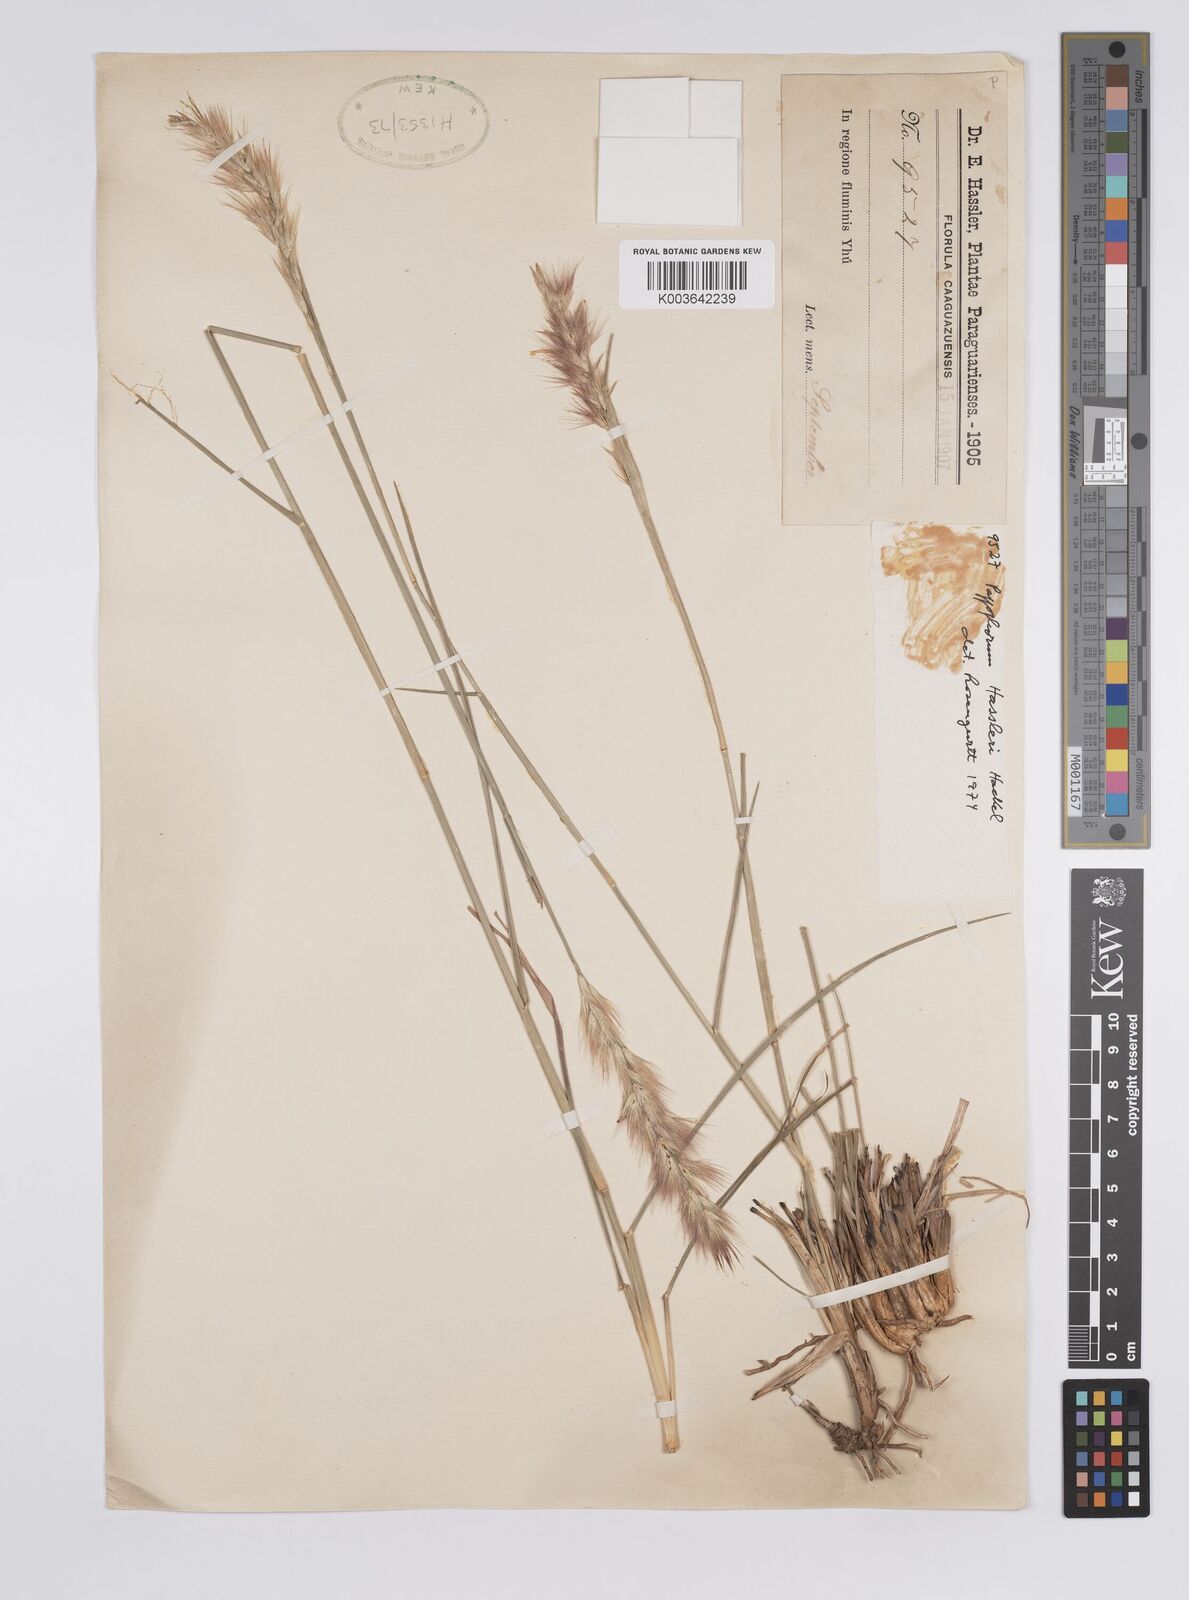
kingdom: Plantae
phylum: Tracheophyta
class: Liliopsida
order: Poales
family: Poaceae
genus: Pappophorum
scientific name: Pappophorum hassleri
